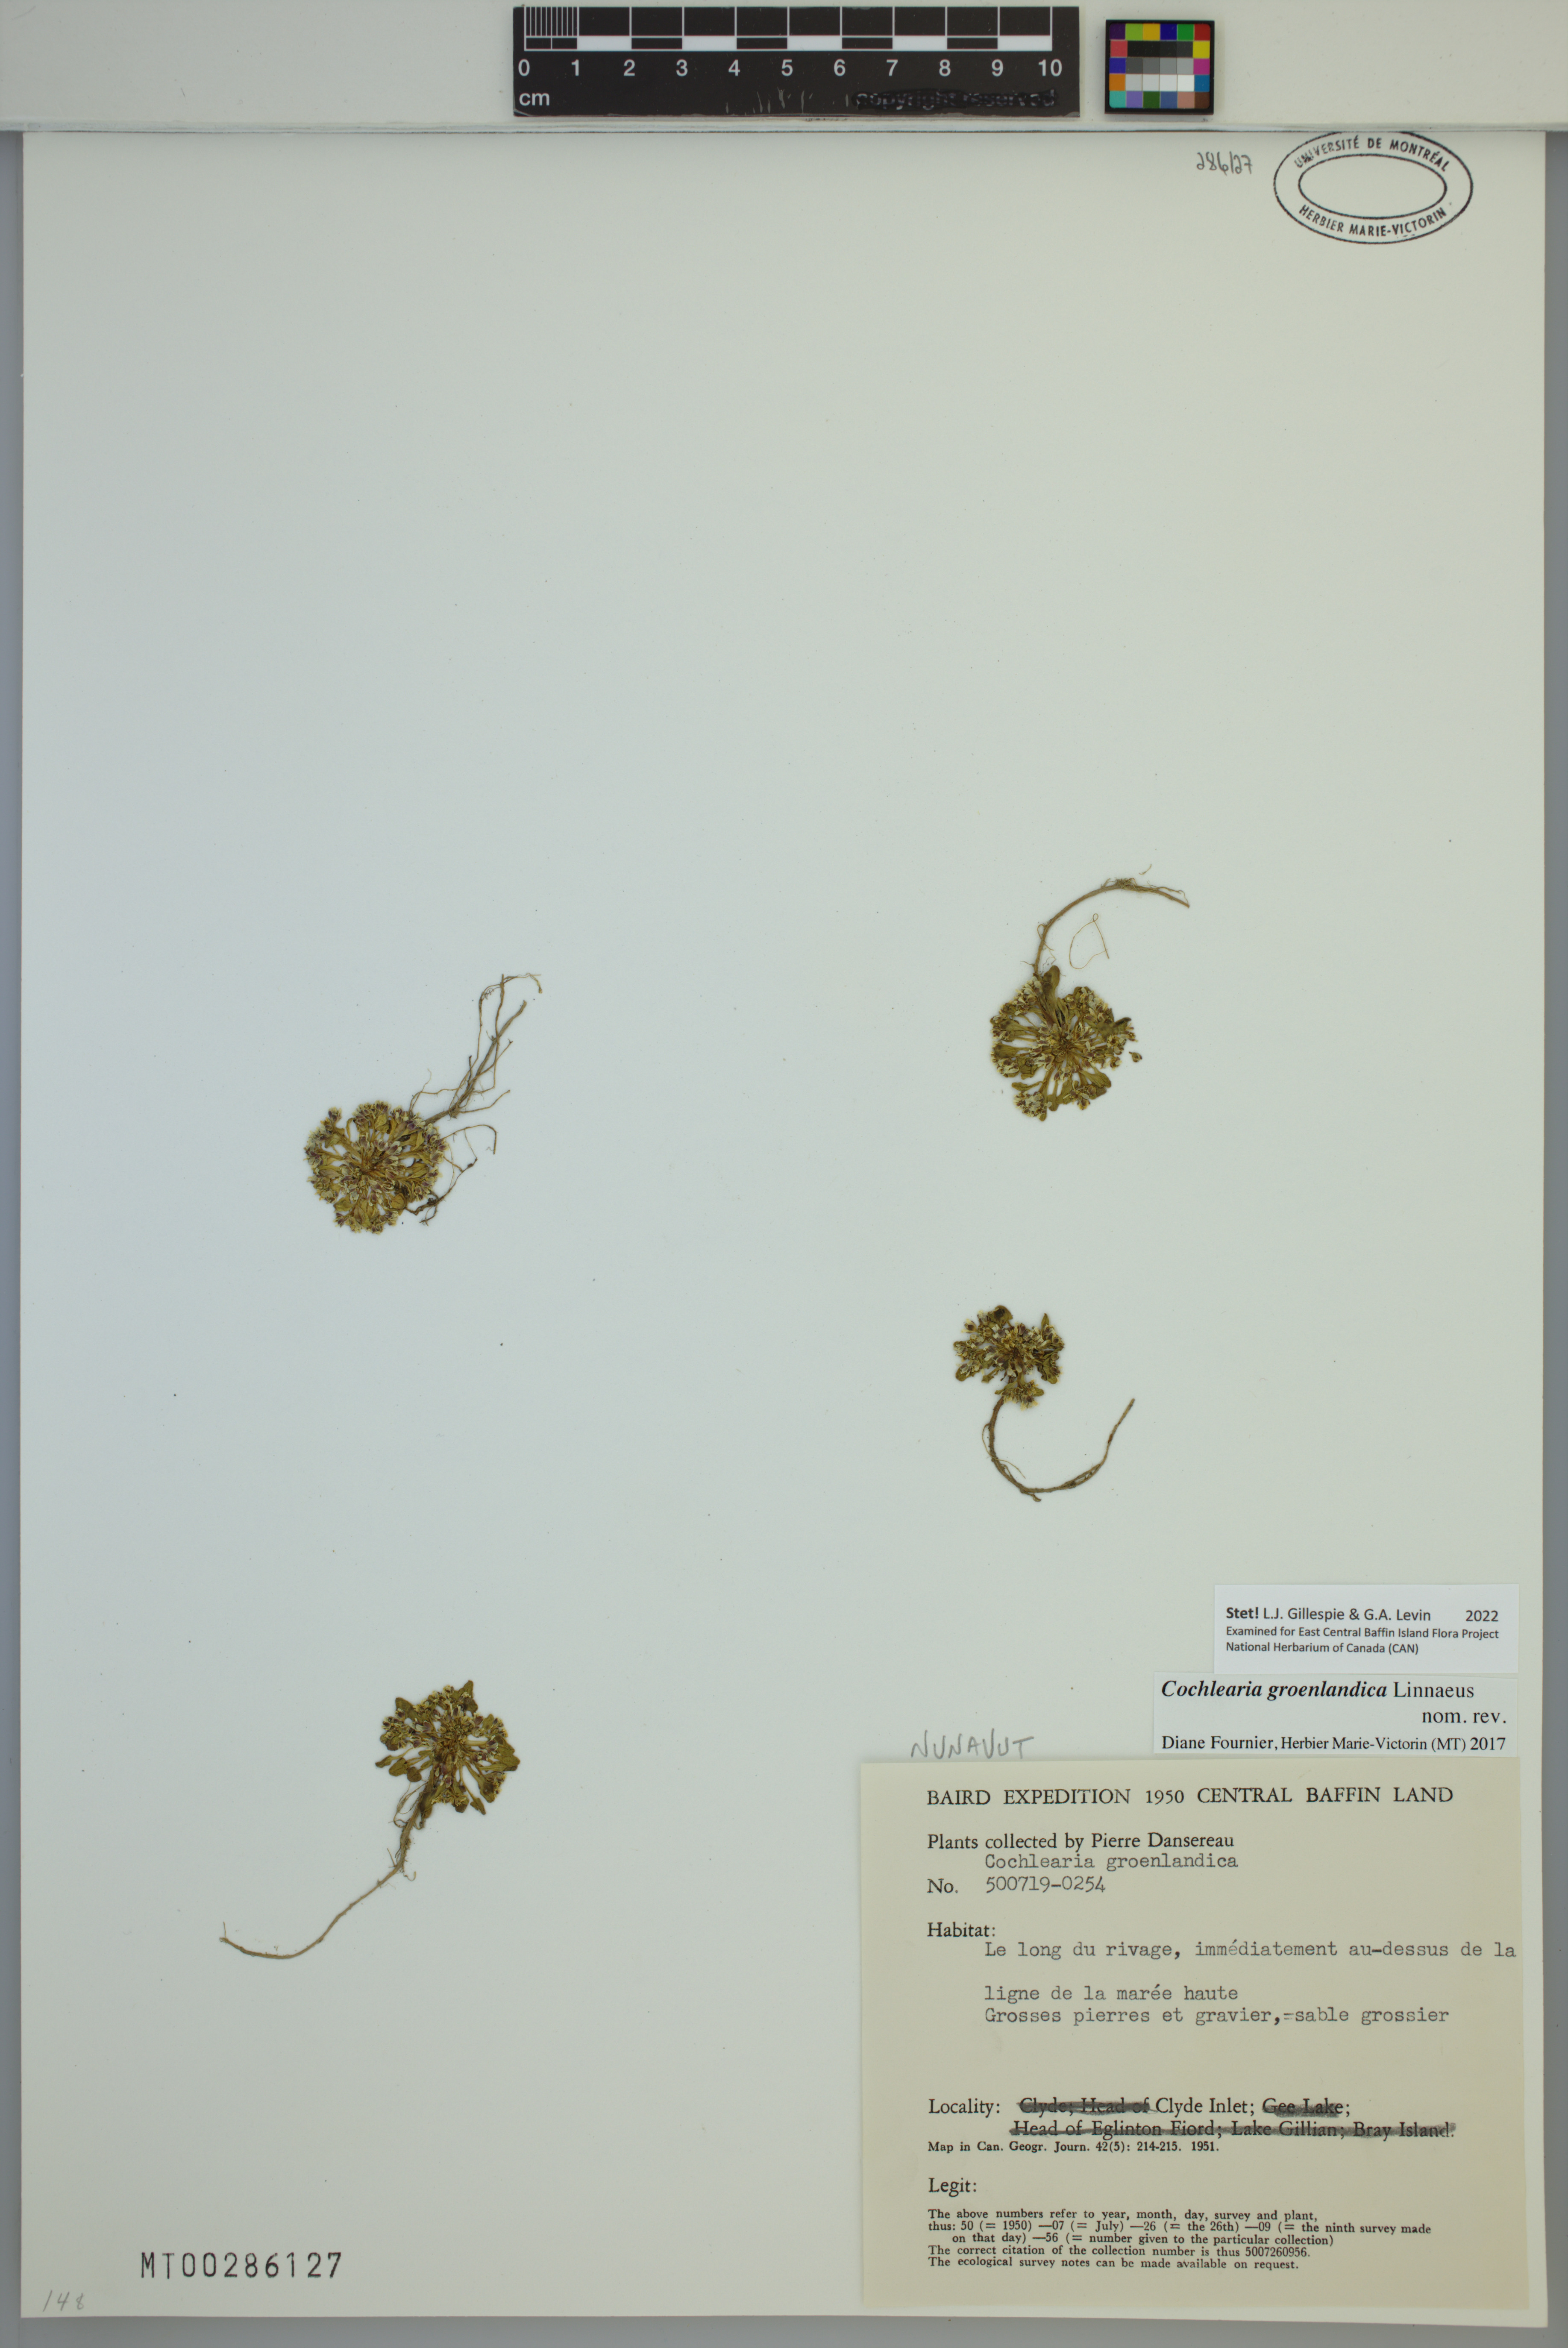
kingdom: Plantae
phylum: Tracheophyta
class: Magnoliopsida
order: Brassicales
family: Brassicaceae
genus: Cochlearia
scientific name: Cochlearia groenlandica
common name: Danish scurvygrass
